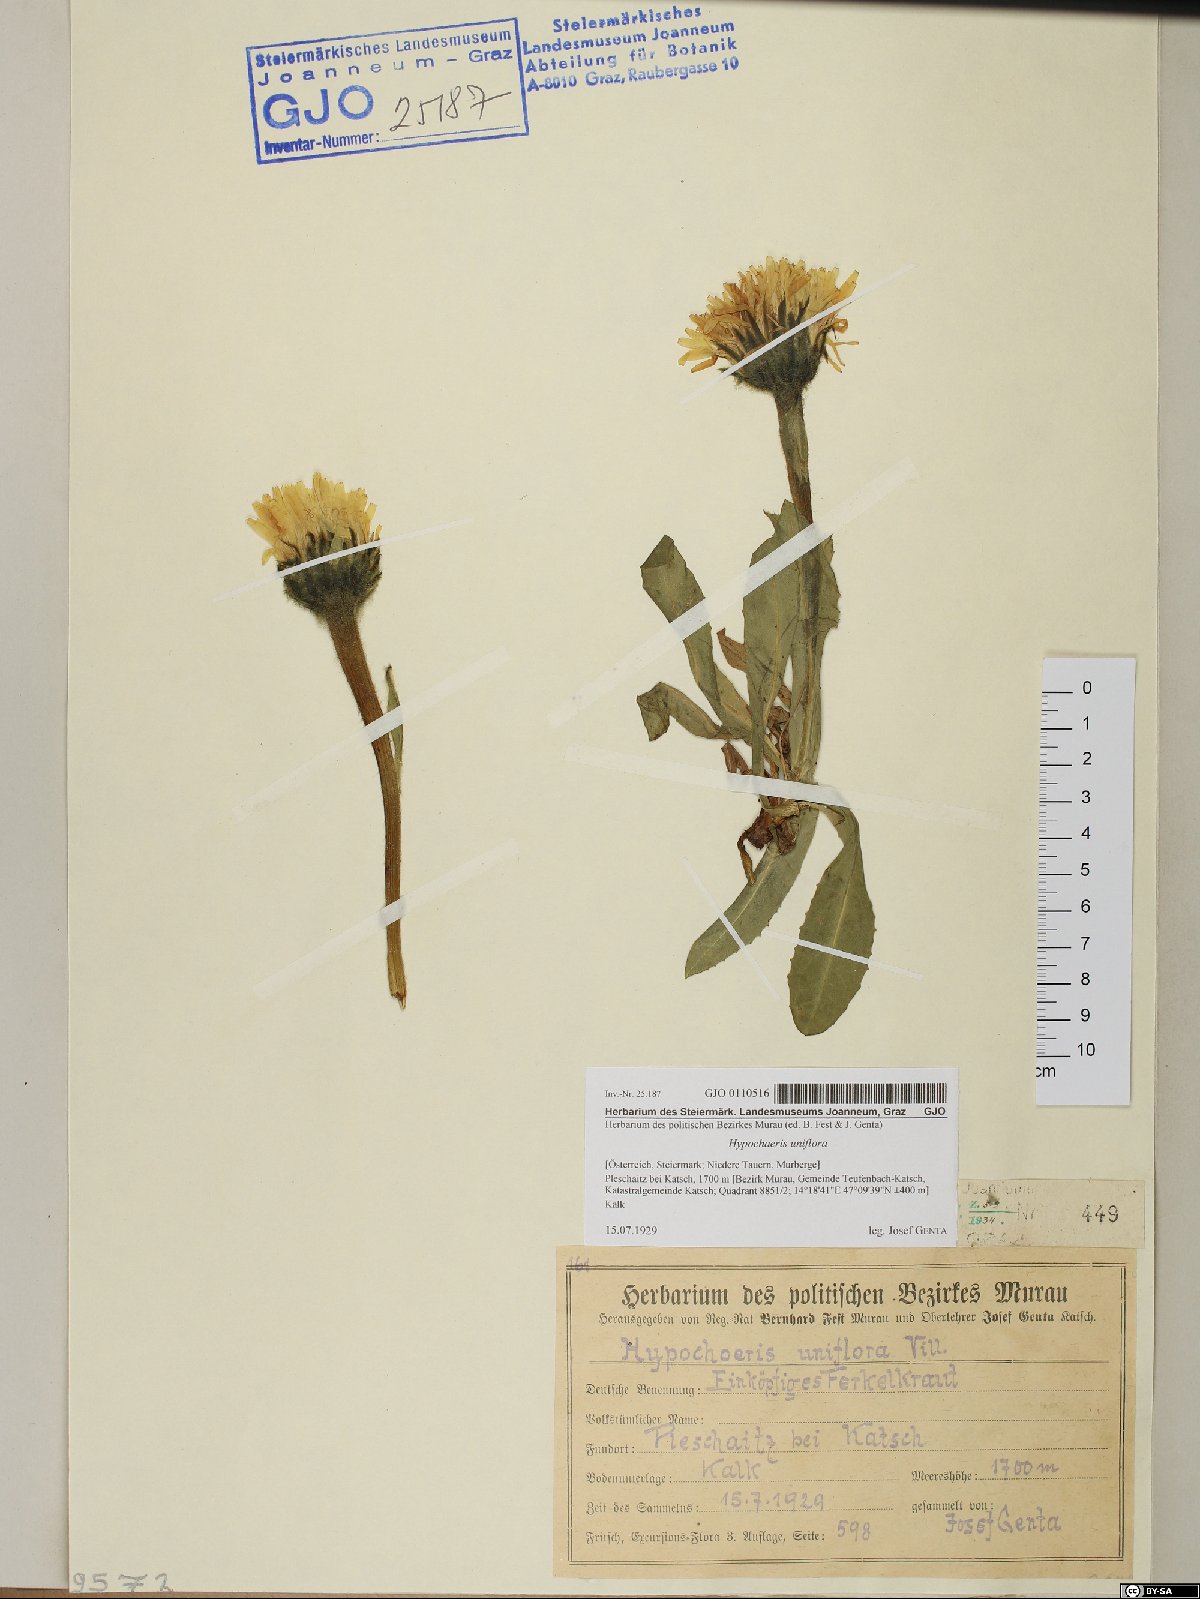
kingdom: Plantae
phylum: Tracheophyta
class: Magnoliopsida
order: Asterales
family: Asteraceae
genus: Trommsdorffia
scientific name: Trommsdorffia uniflora
